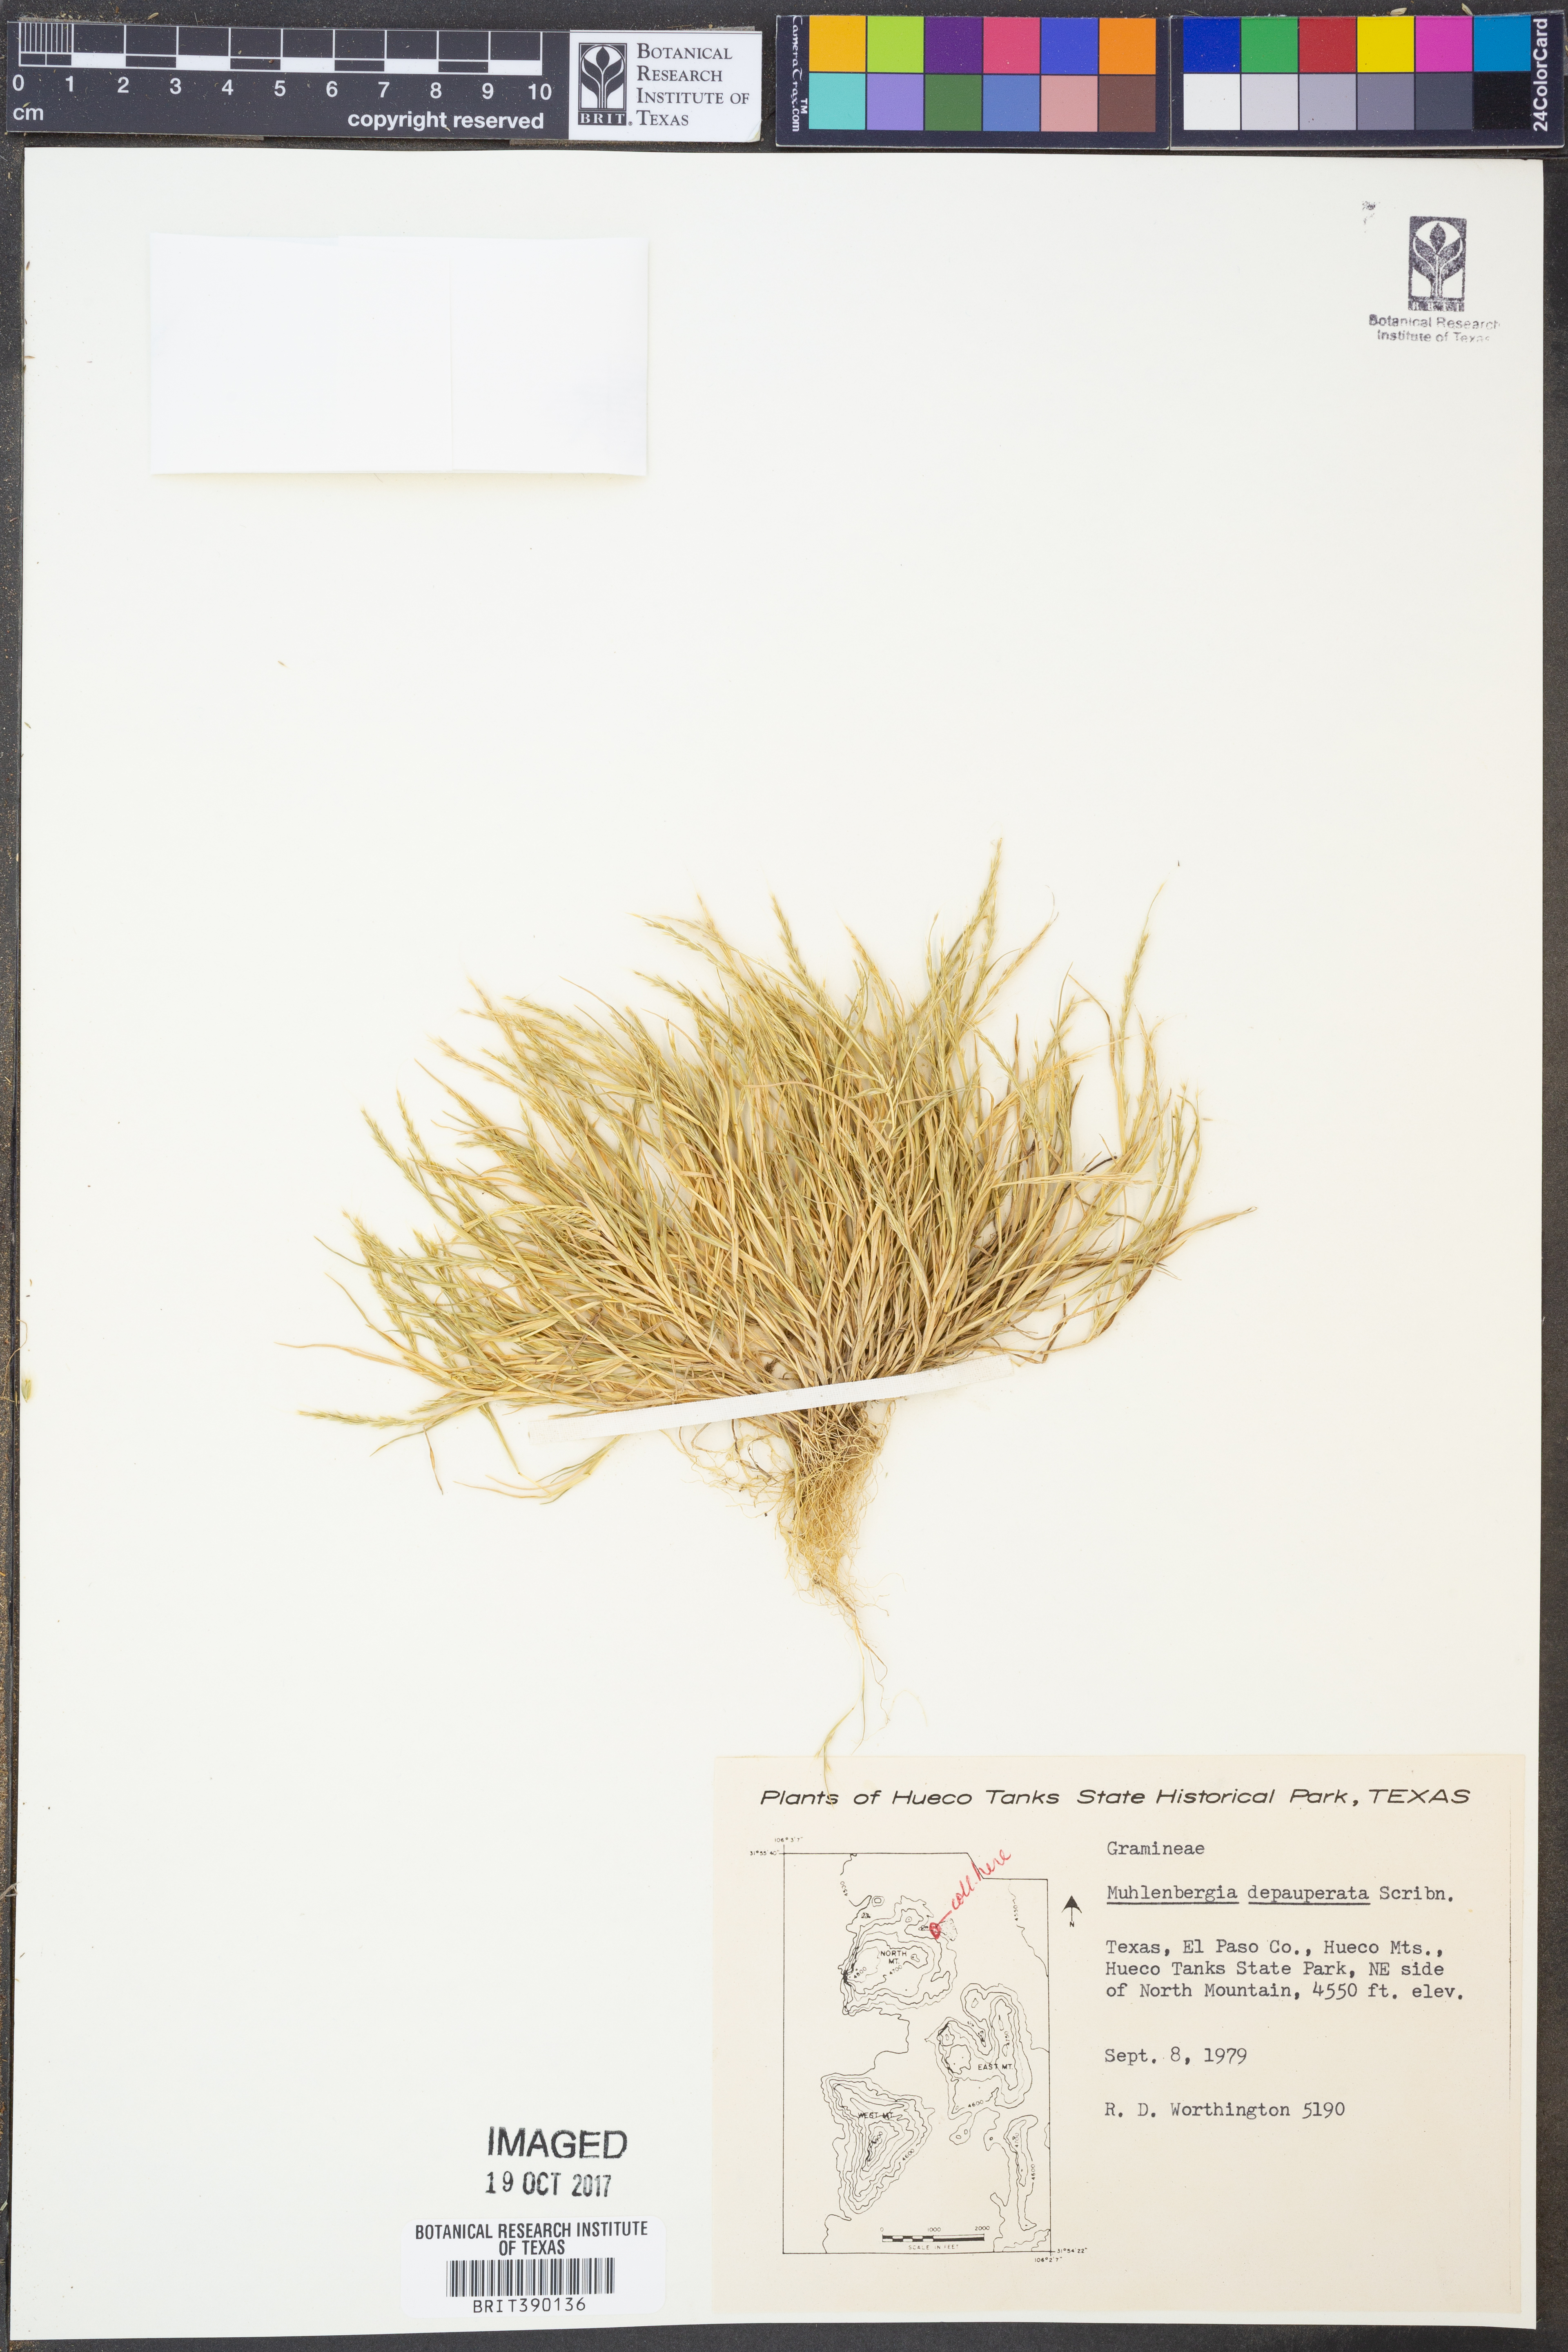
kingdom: Plantae
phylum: Tracheophyta
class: Liliopsida
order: Poales
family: Poaceae
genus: Muhlenbergia
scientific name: Muhlenbergia depauperata
